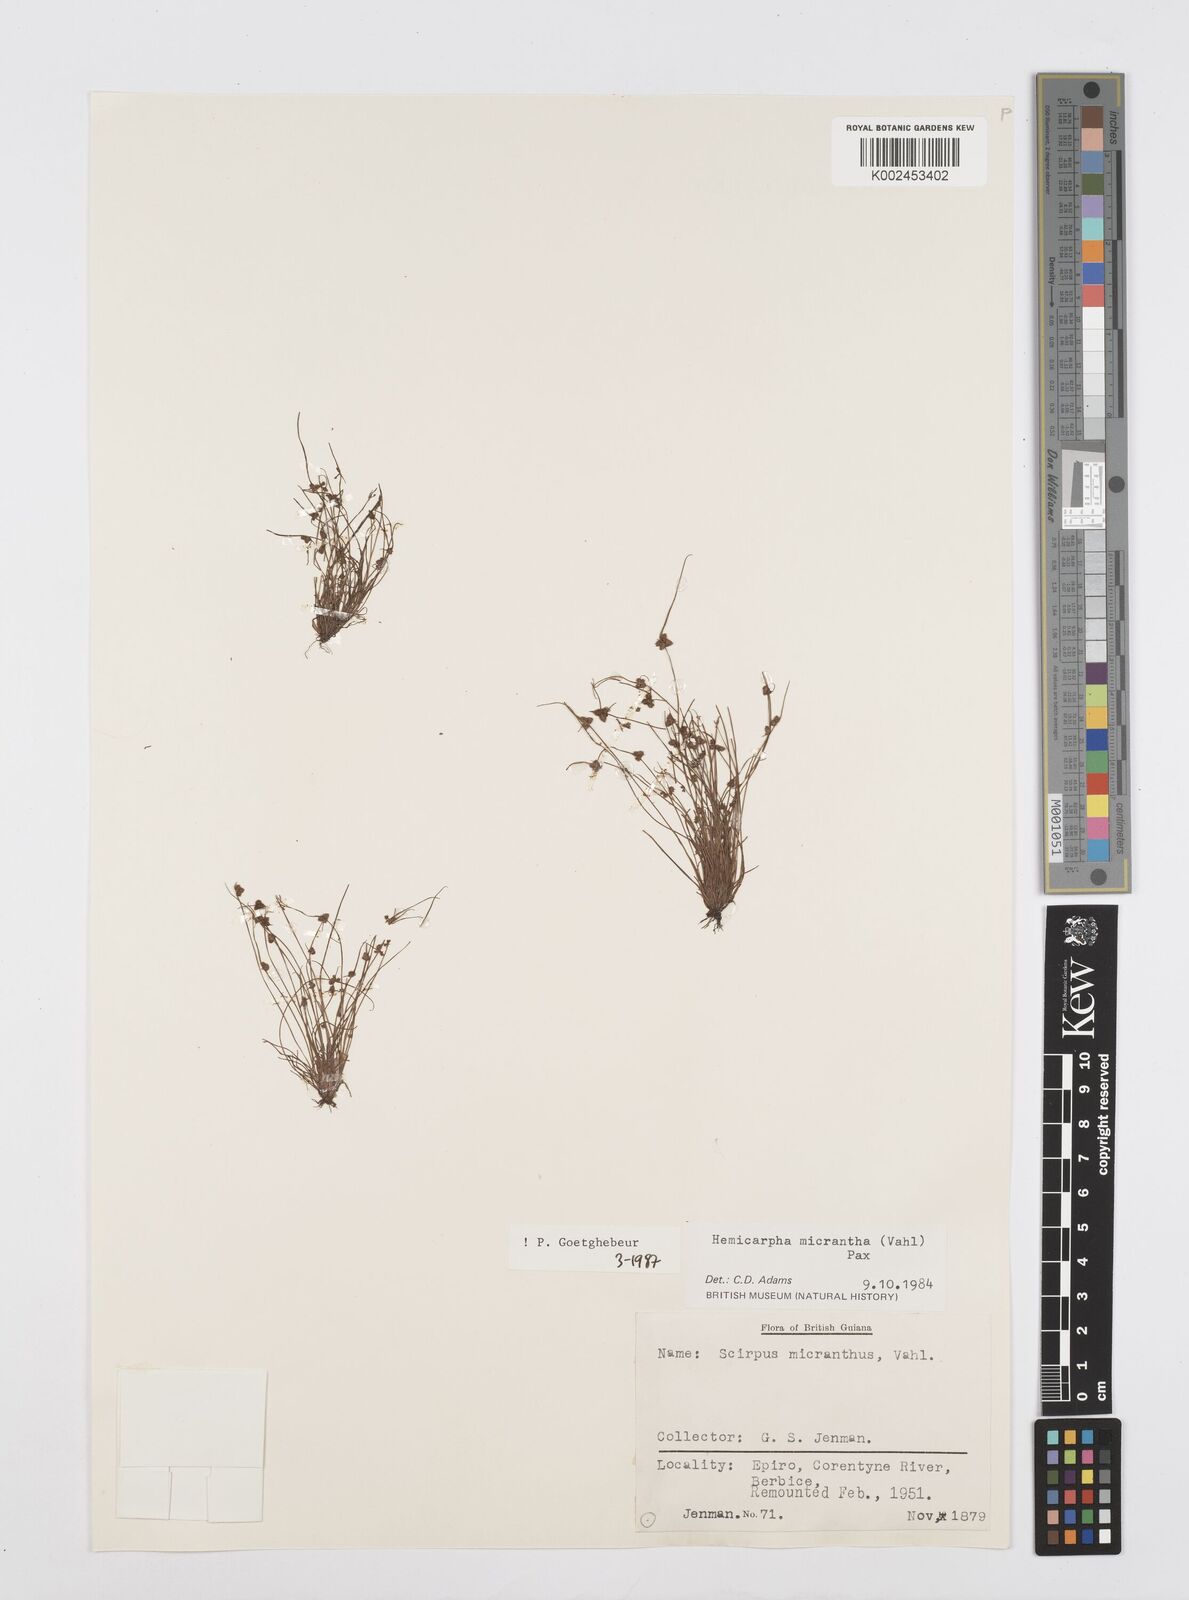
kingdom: Plantae
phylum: Tracheophyta
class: Liliopsida
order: Poales
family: Cyperaceae
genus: Cyperus
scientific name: Cyperus dentatus
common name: Dentate umbrella sedge
